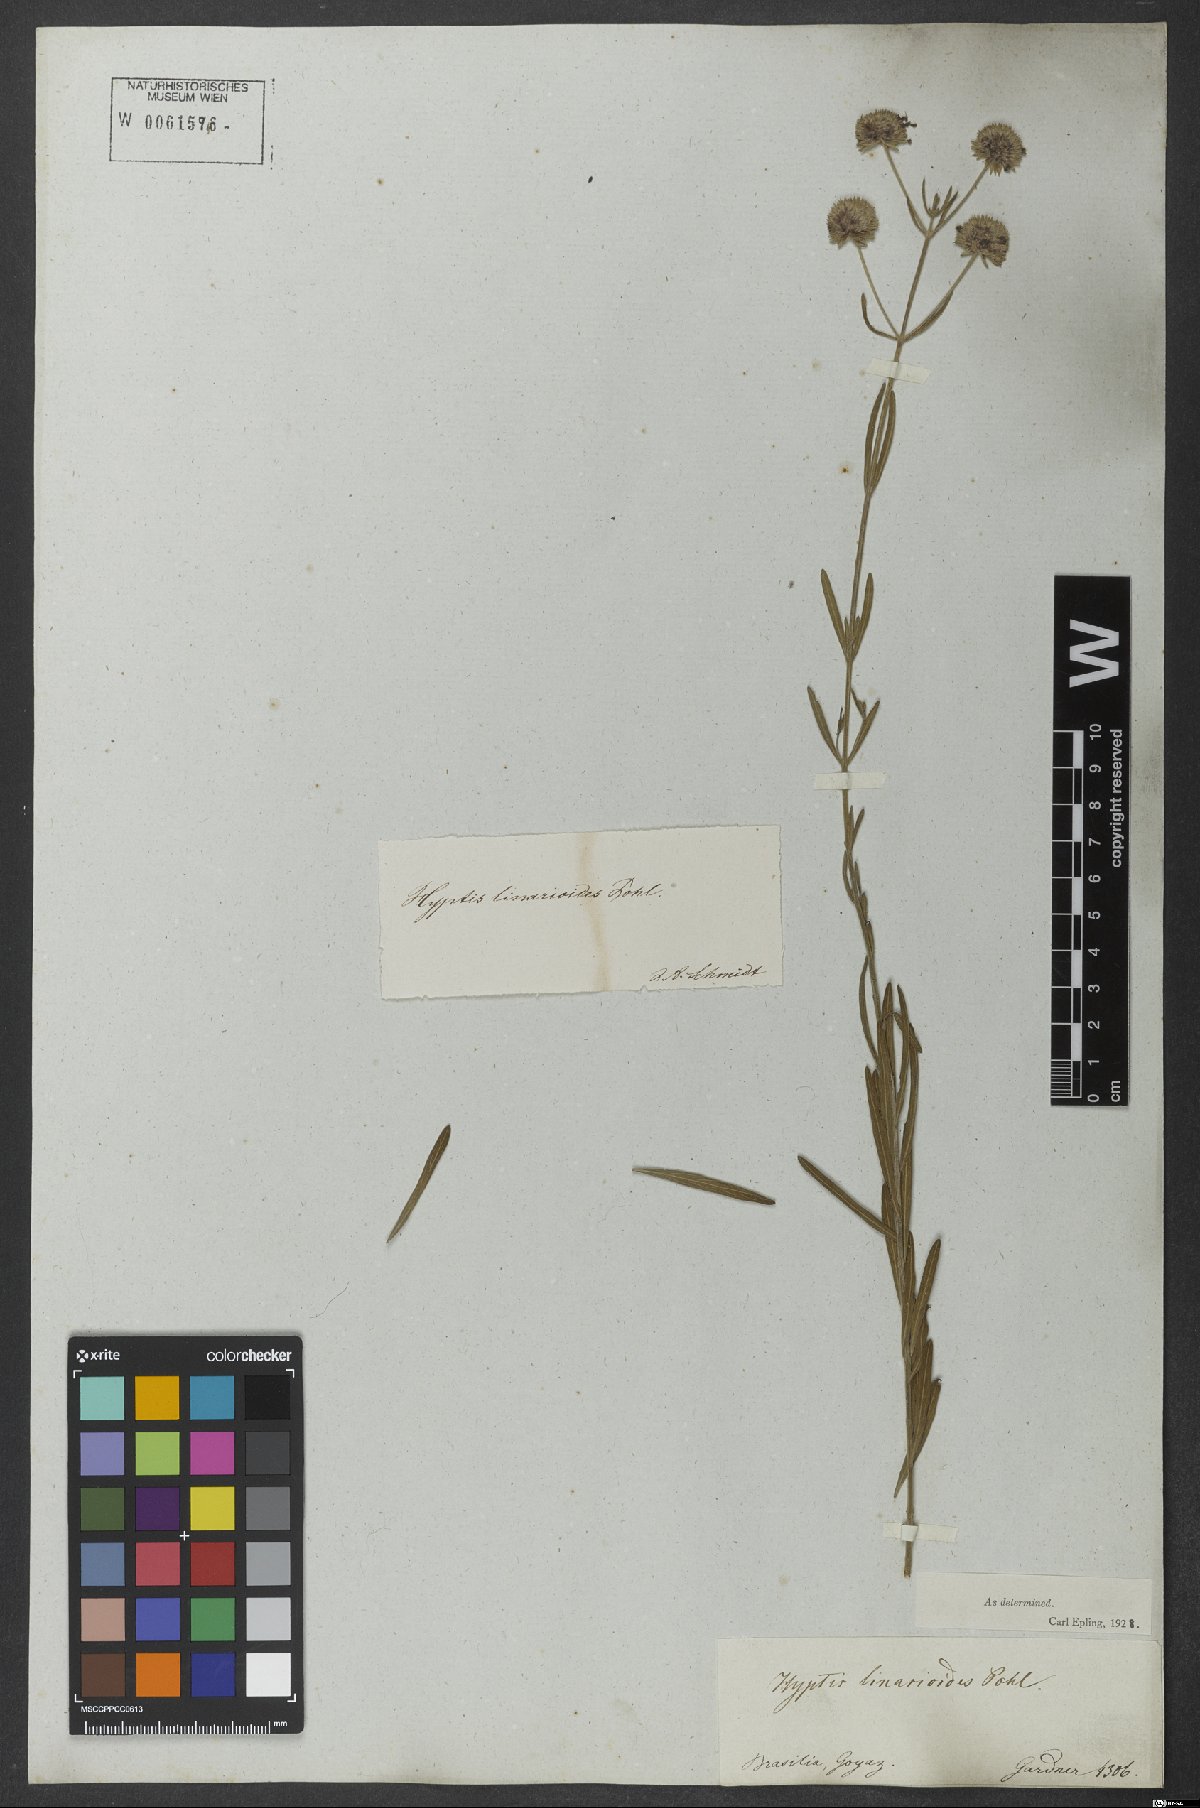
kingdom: Plantae
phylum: Tracheophyta
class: Magnoliopsida
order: Lamiales
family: Lamiaceae
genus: Hyptis
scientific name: Hyptis linarioides
